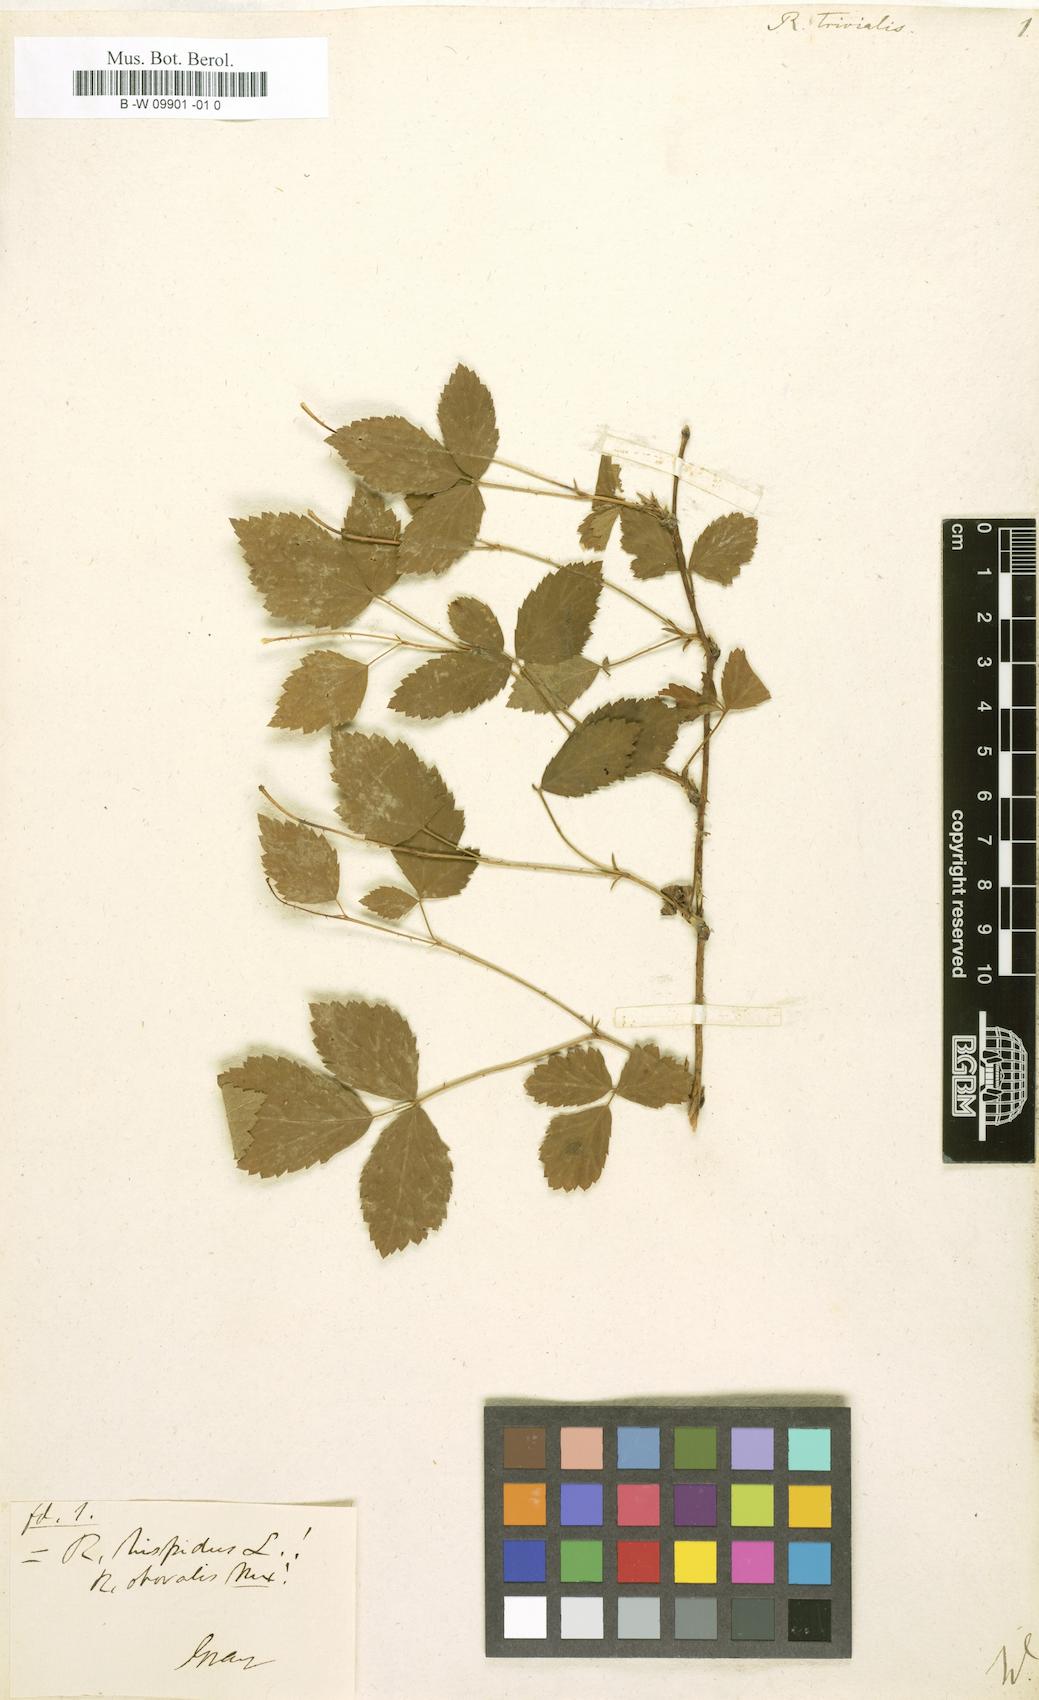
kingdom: Plantae
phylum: Tracheophyta
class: Magnoliopsida
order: Rosales
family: Rosaceae
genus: Rubus
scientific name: Rubus trivialis
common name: Southern dewberry
